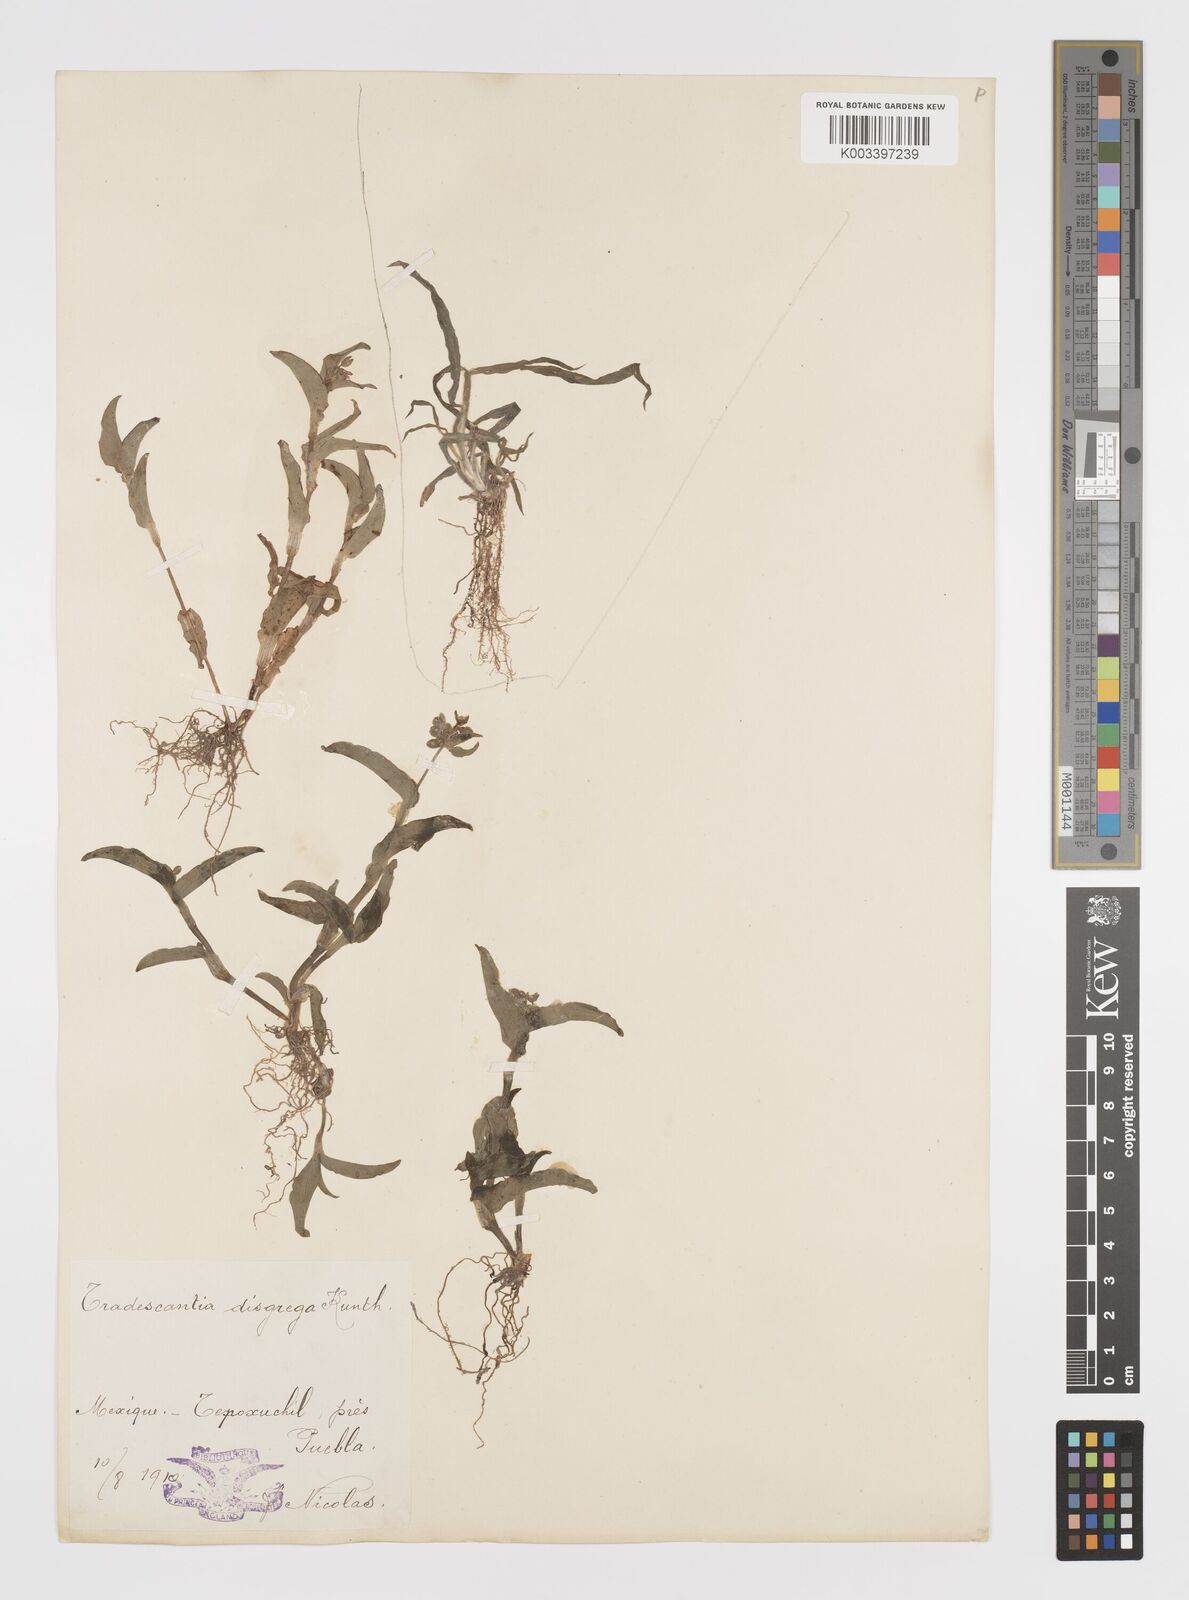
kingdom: Plantae
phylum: Tracheophyta
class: Liliopsida
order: Commelinales
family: Commelinaceae
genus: Callisia
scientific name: Callisia disgrega
